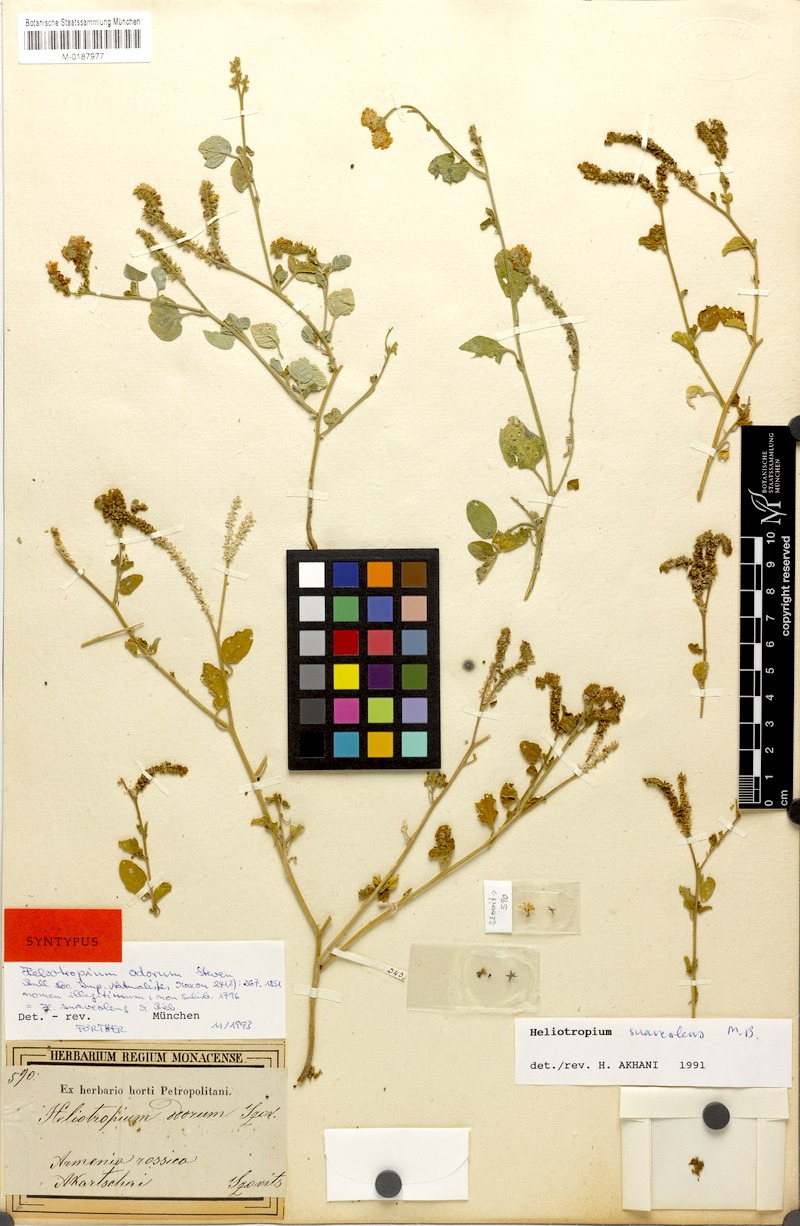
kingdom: Plantae
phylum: Tracheophyta
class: Magnoliopsida
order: Boraginales
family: Heliotropiaceae
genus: Heliotropium
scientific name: Heliotropium suaveolens
